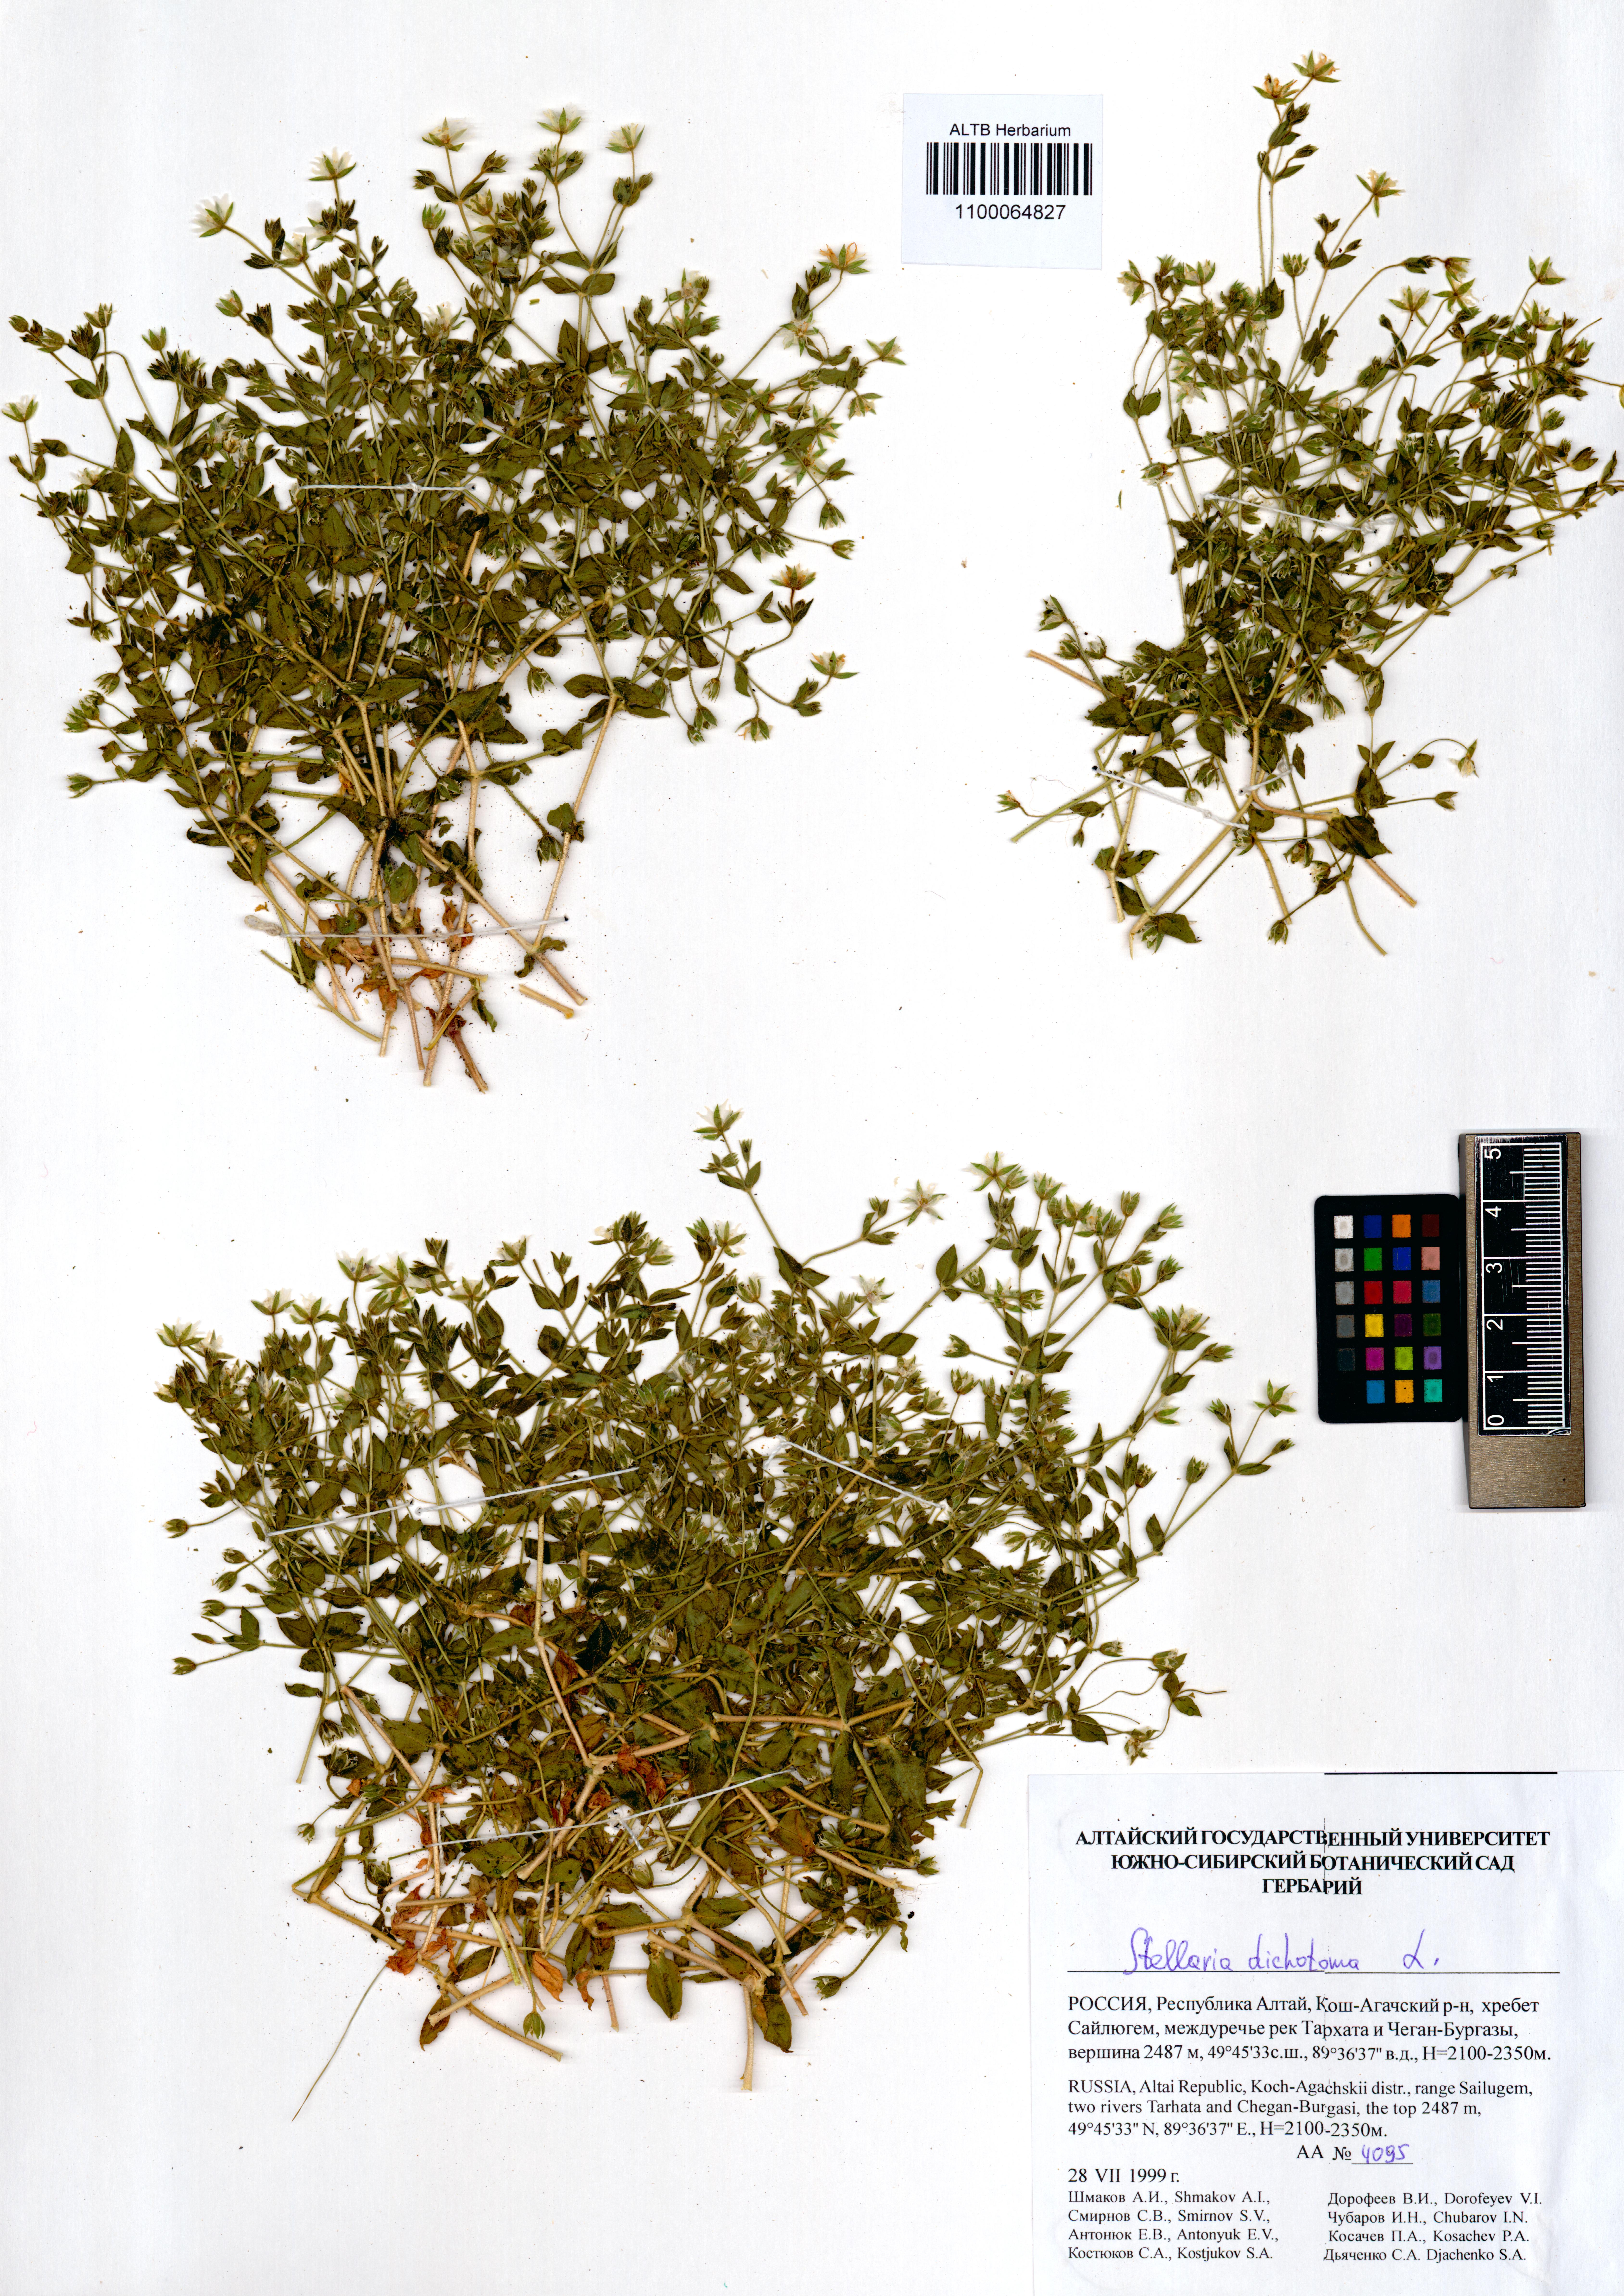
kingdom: Plantae
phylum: Tracheophyta
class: Magnoliopsida
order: Caryophyllales
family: Caryophyllaceae
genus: Mesostemma
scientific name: Mesostemma dichotomum
